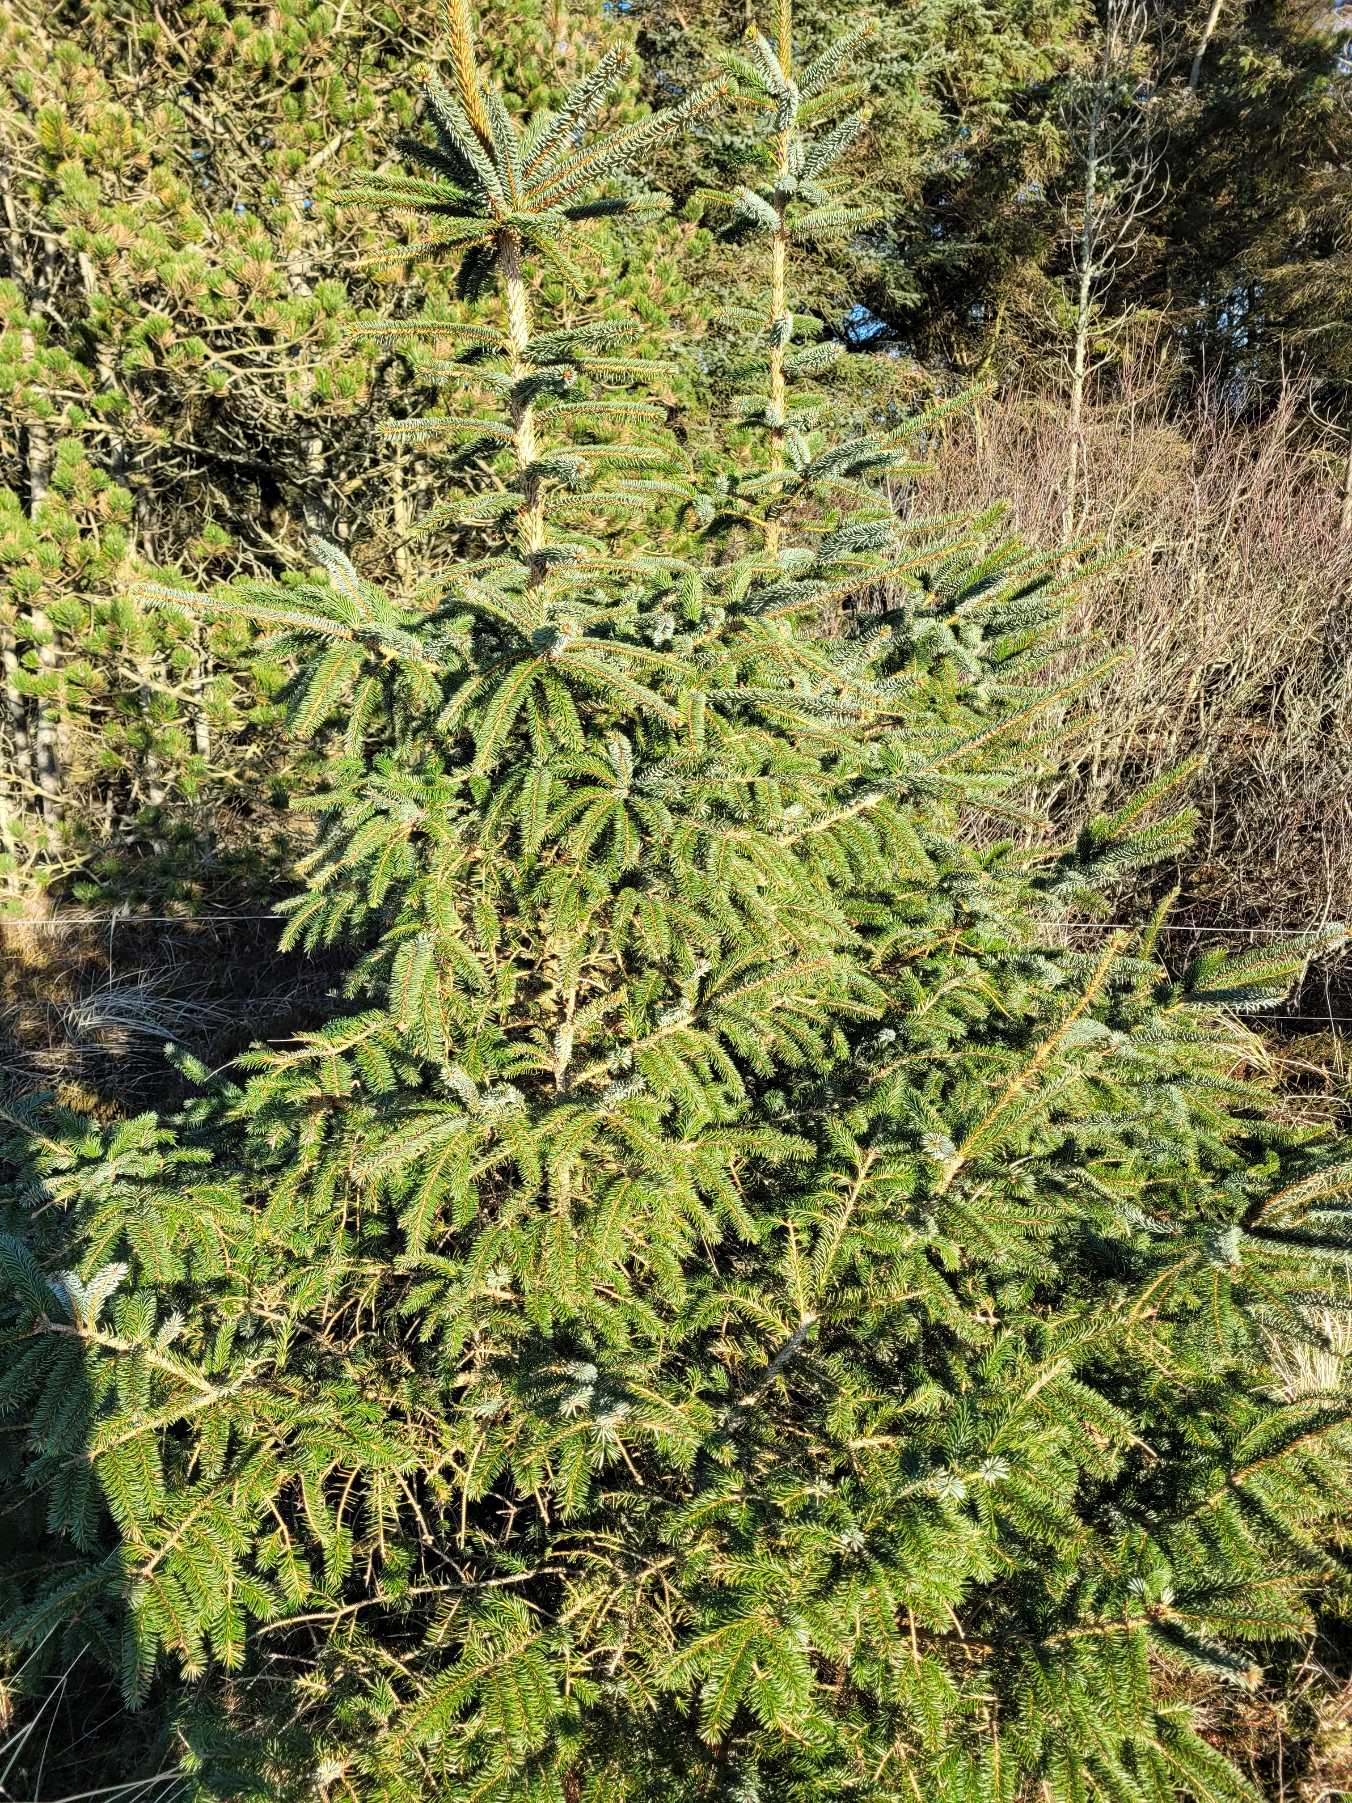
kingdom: Plantae
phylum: Tracheophyta
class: Pinopsida
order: Pinales
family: Pinaceae
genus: Picea
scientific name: Picea sitchensis
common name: Sitka-gran
